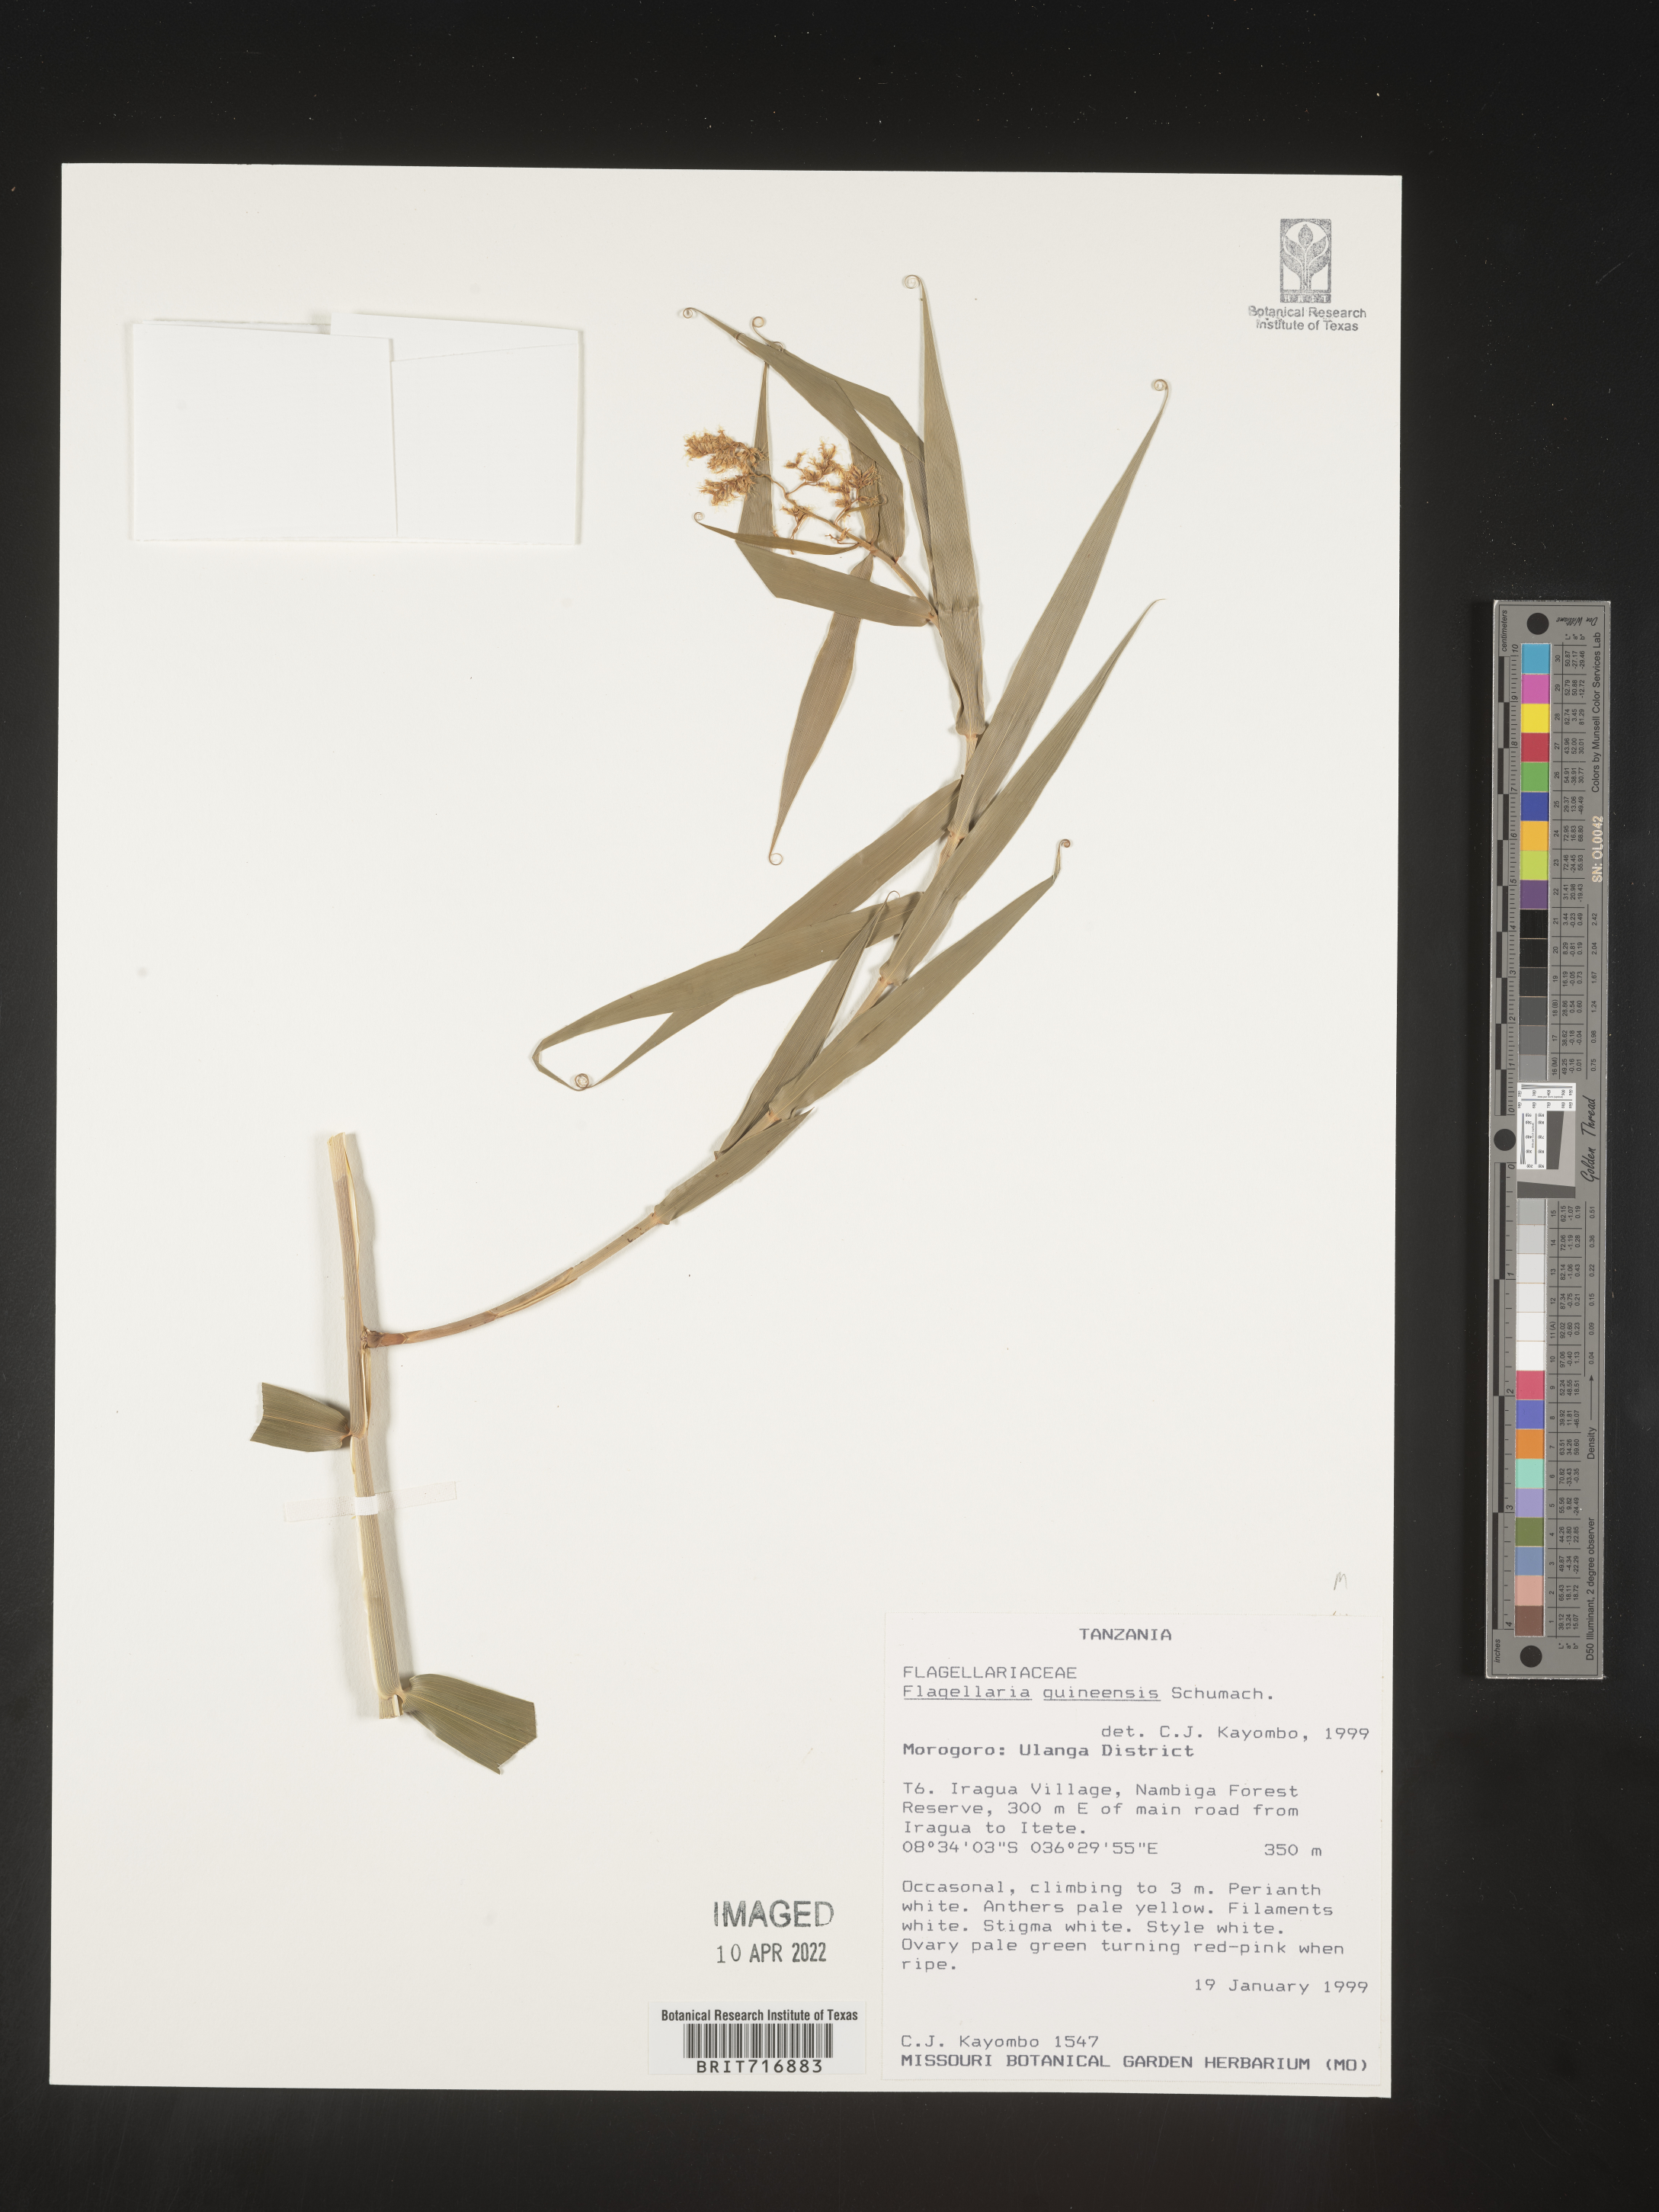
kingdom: Plantae
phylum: Tracheophyta
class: Liliopsida
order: Poales
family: Flagellariaceae
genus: Flagellaria
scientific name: Flagellaria
